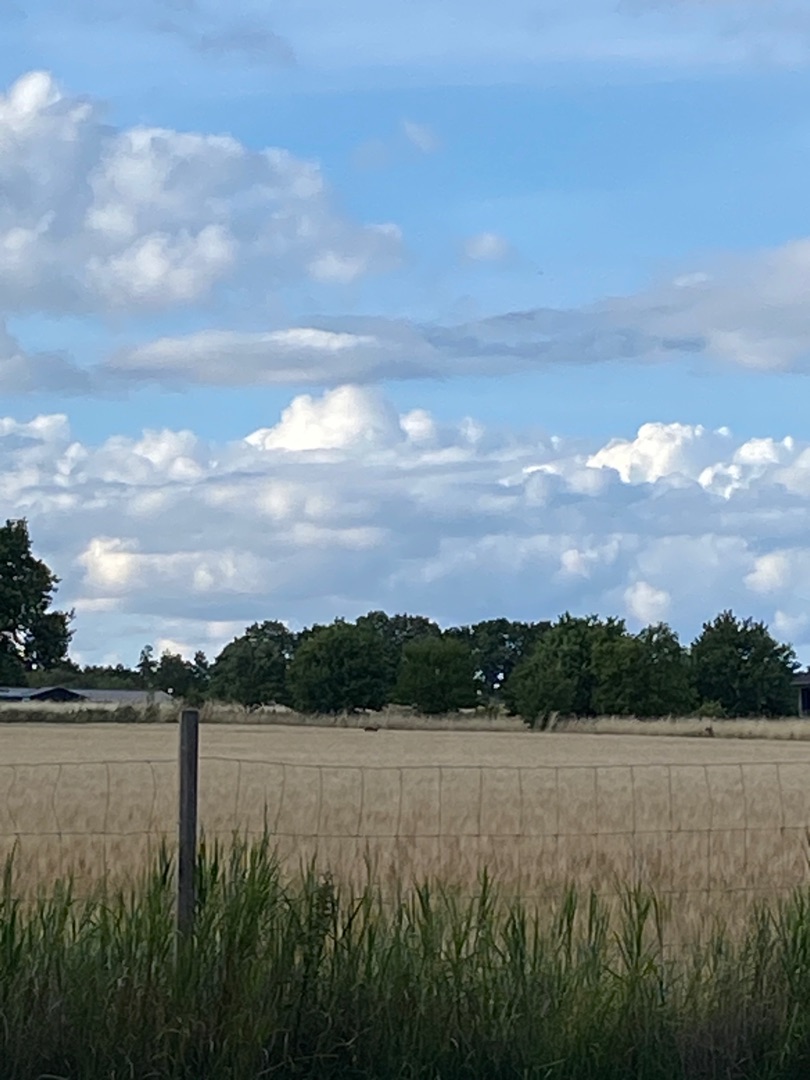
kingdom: Animalia
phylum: Chordata
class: Mammalia
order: Artiodactyla
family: Cervidae
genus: Capreolus
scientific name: Capreolus capreolus
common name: Rådyr
